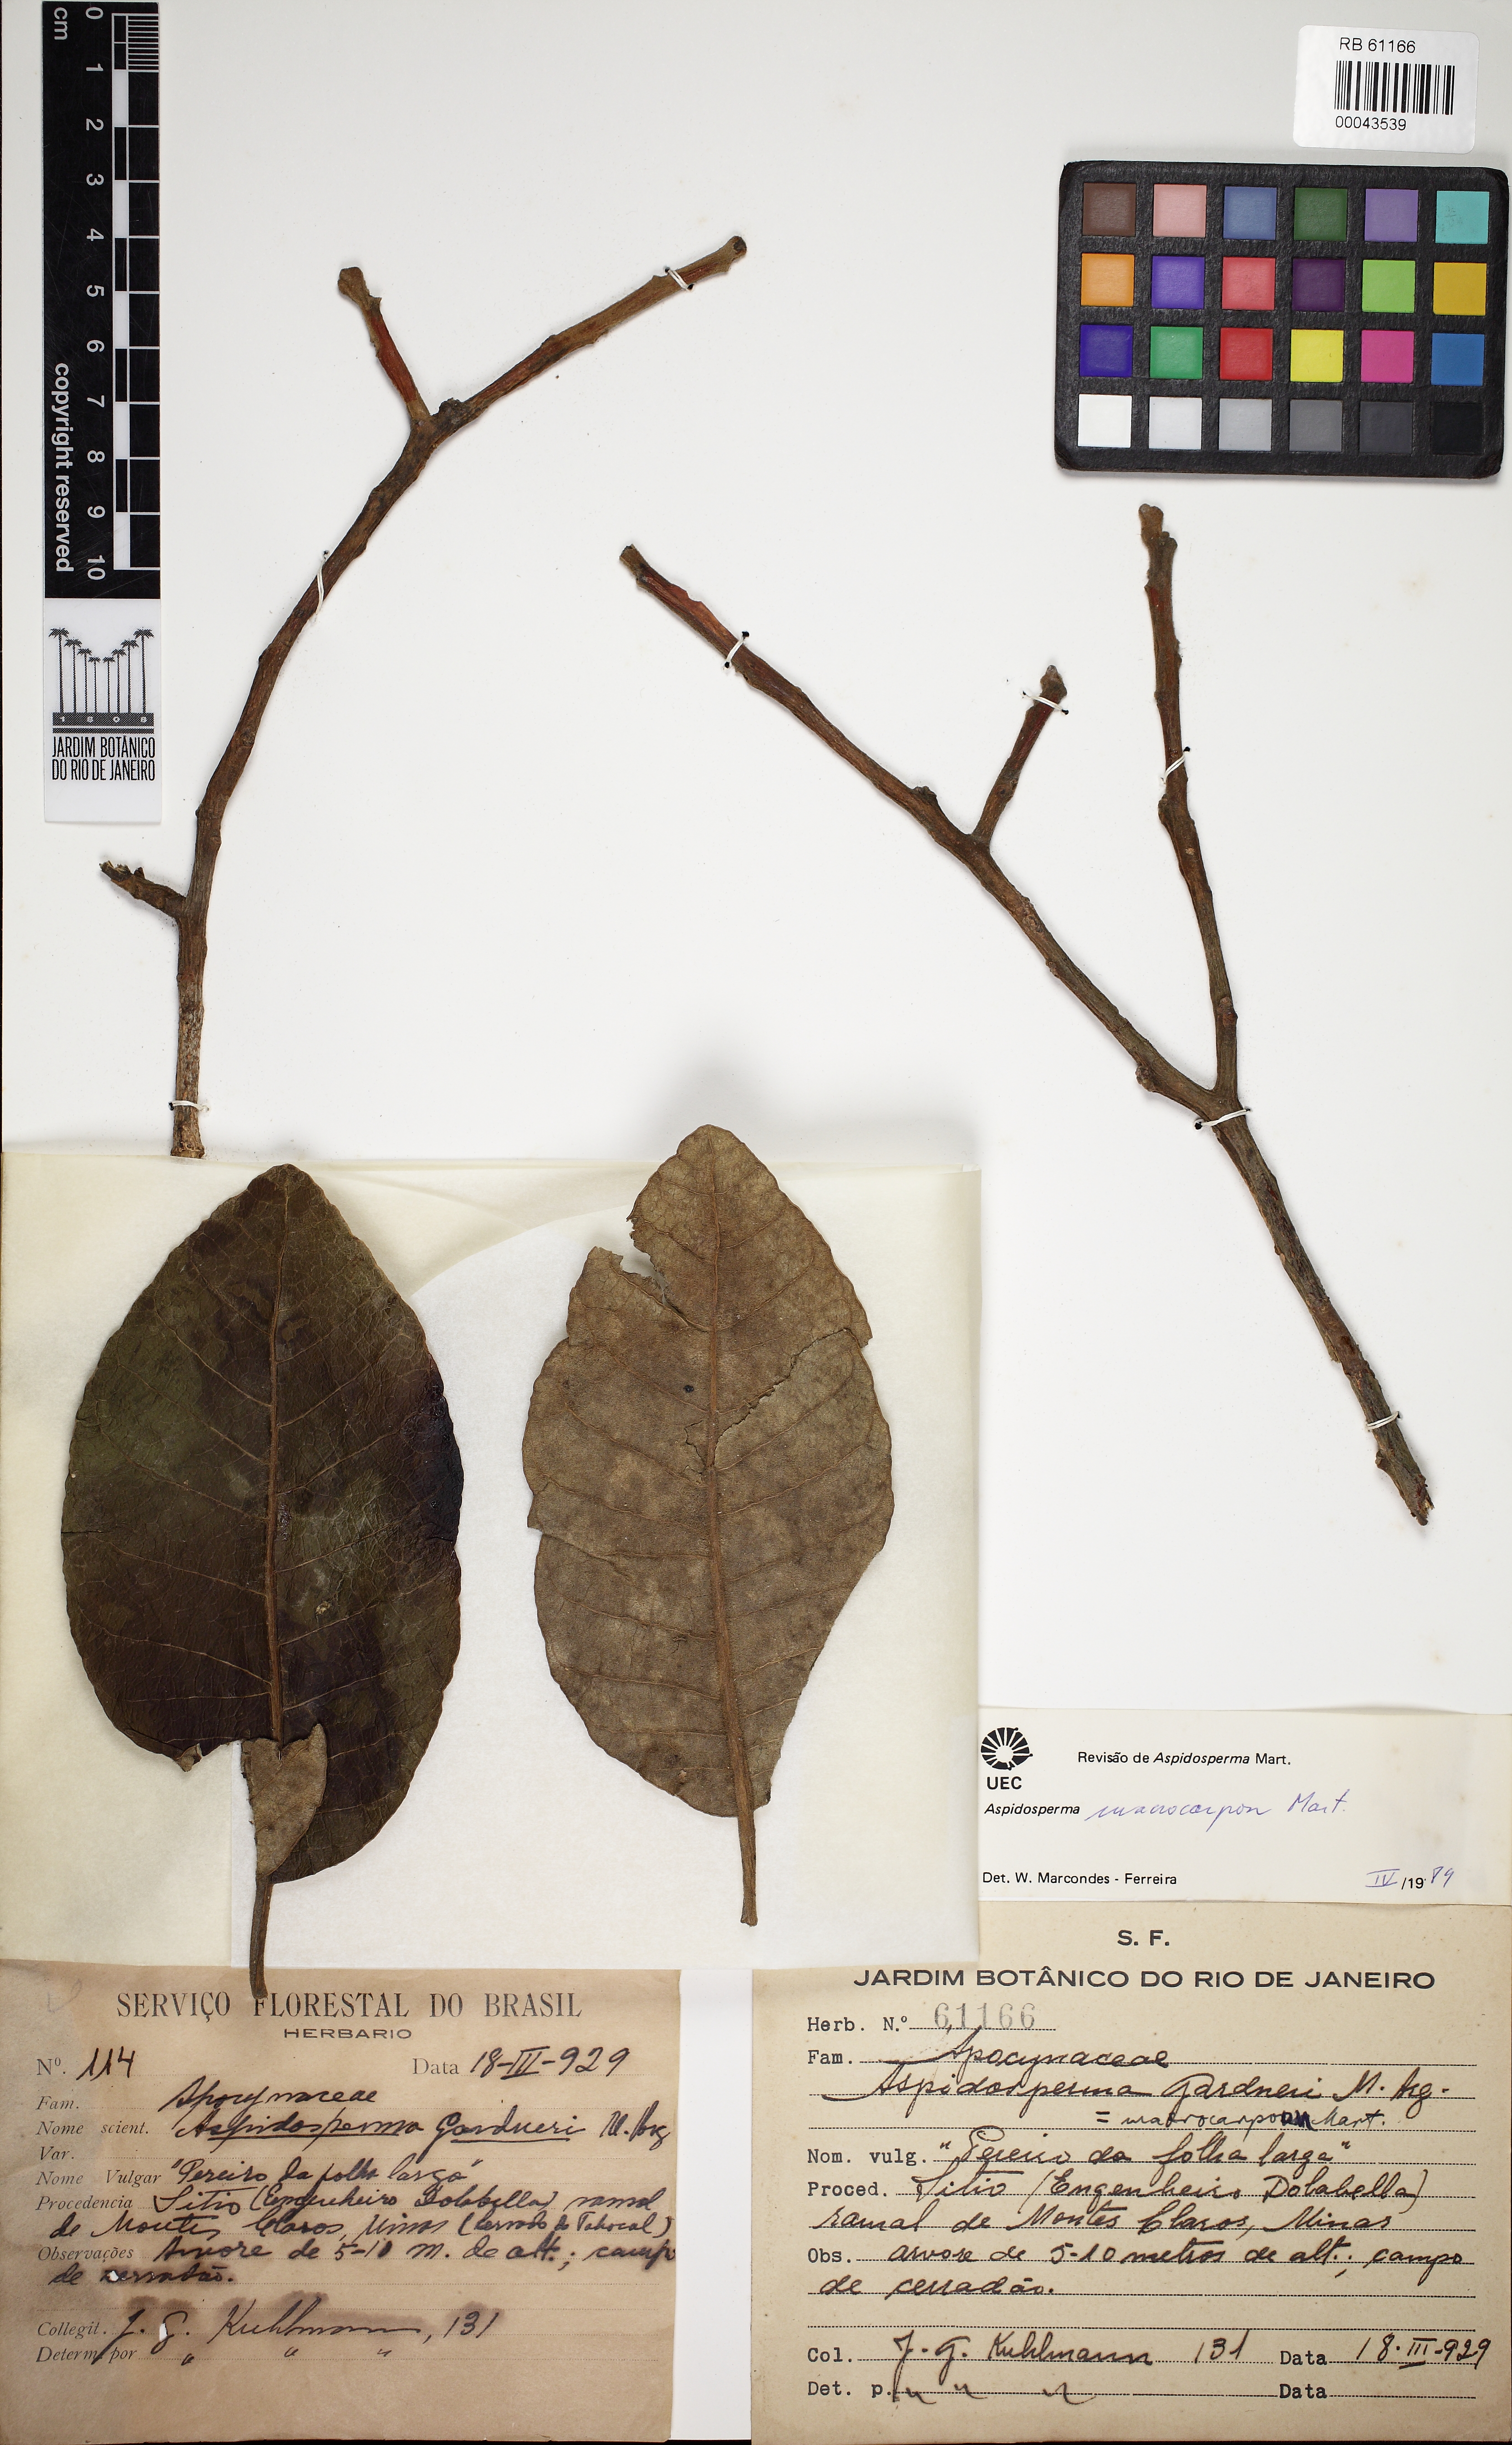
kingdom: Plantae
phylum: Tracheophyta
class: Magnoliopsida
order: Gentianales
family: Apocynaceae
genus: Aspidosperma
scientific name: Aspidosperma macrocarpon
